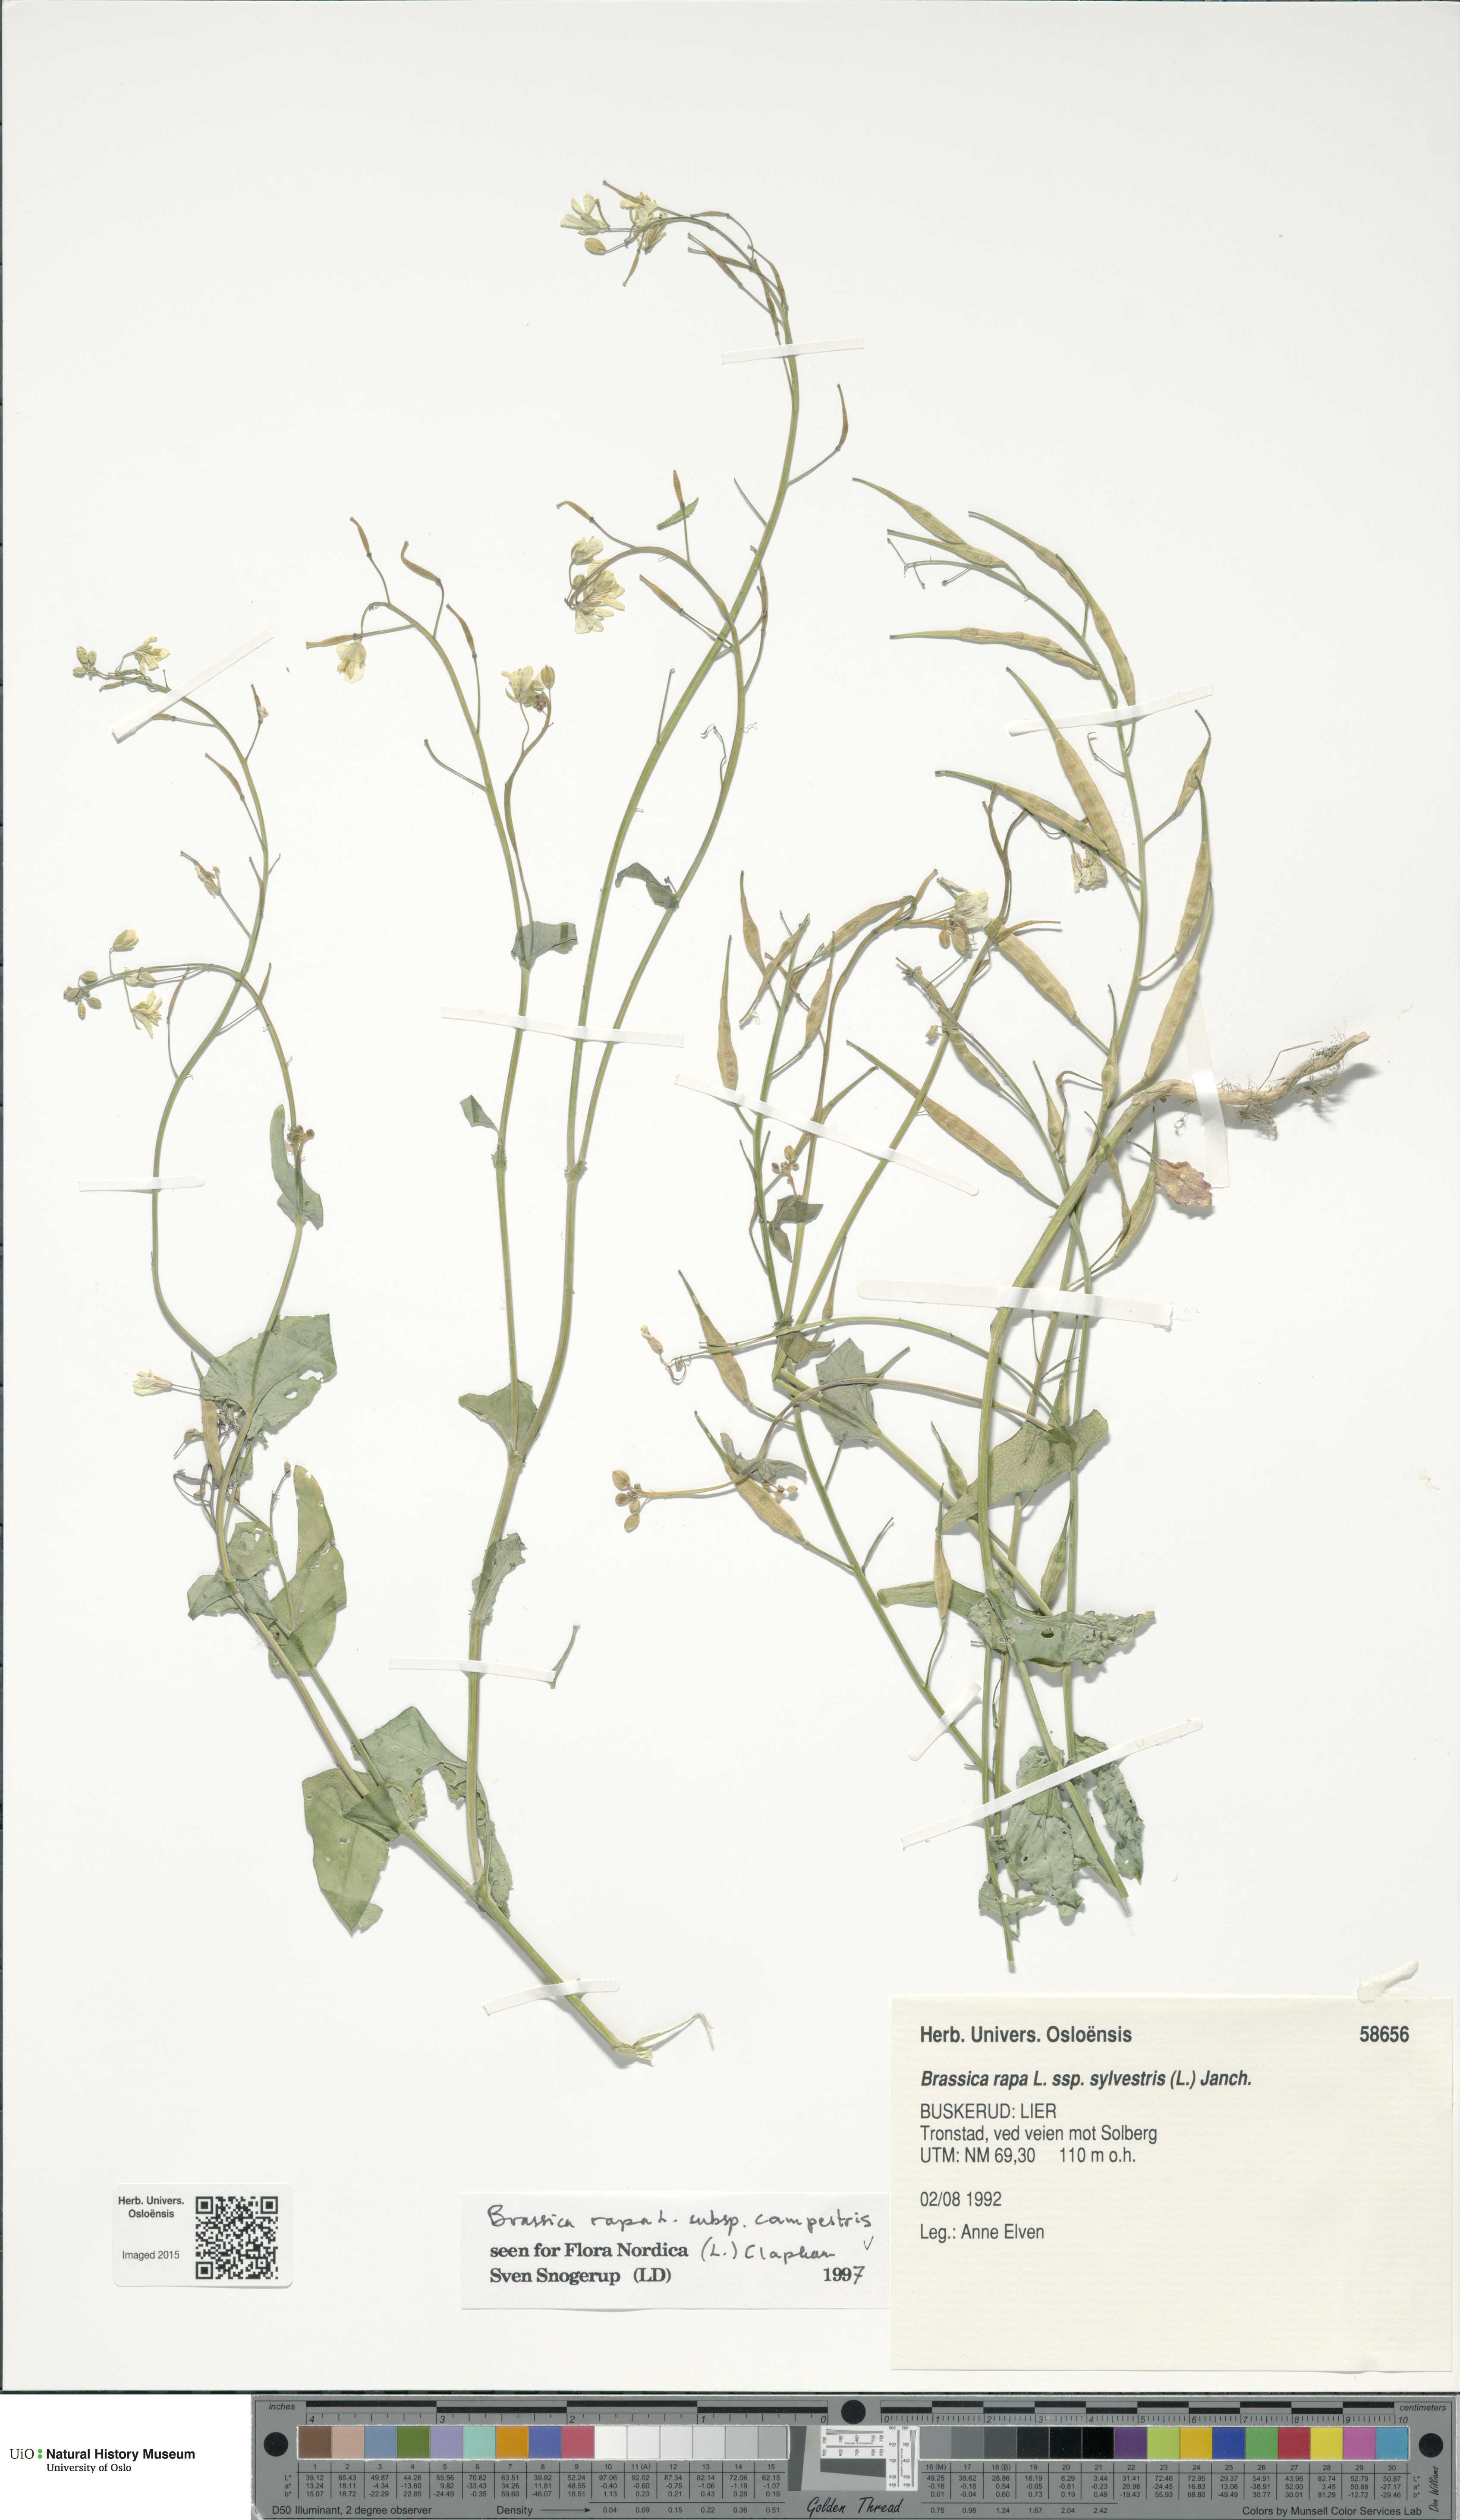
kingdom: Plantae
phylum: Tracheophyta
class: Magnoliopsida
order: Brassicales
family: Brassicaceae
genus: Brassica
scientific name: Brassica rapa
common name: Field mustard
